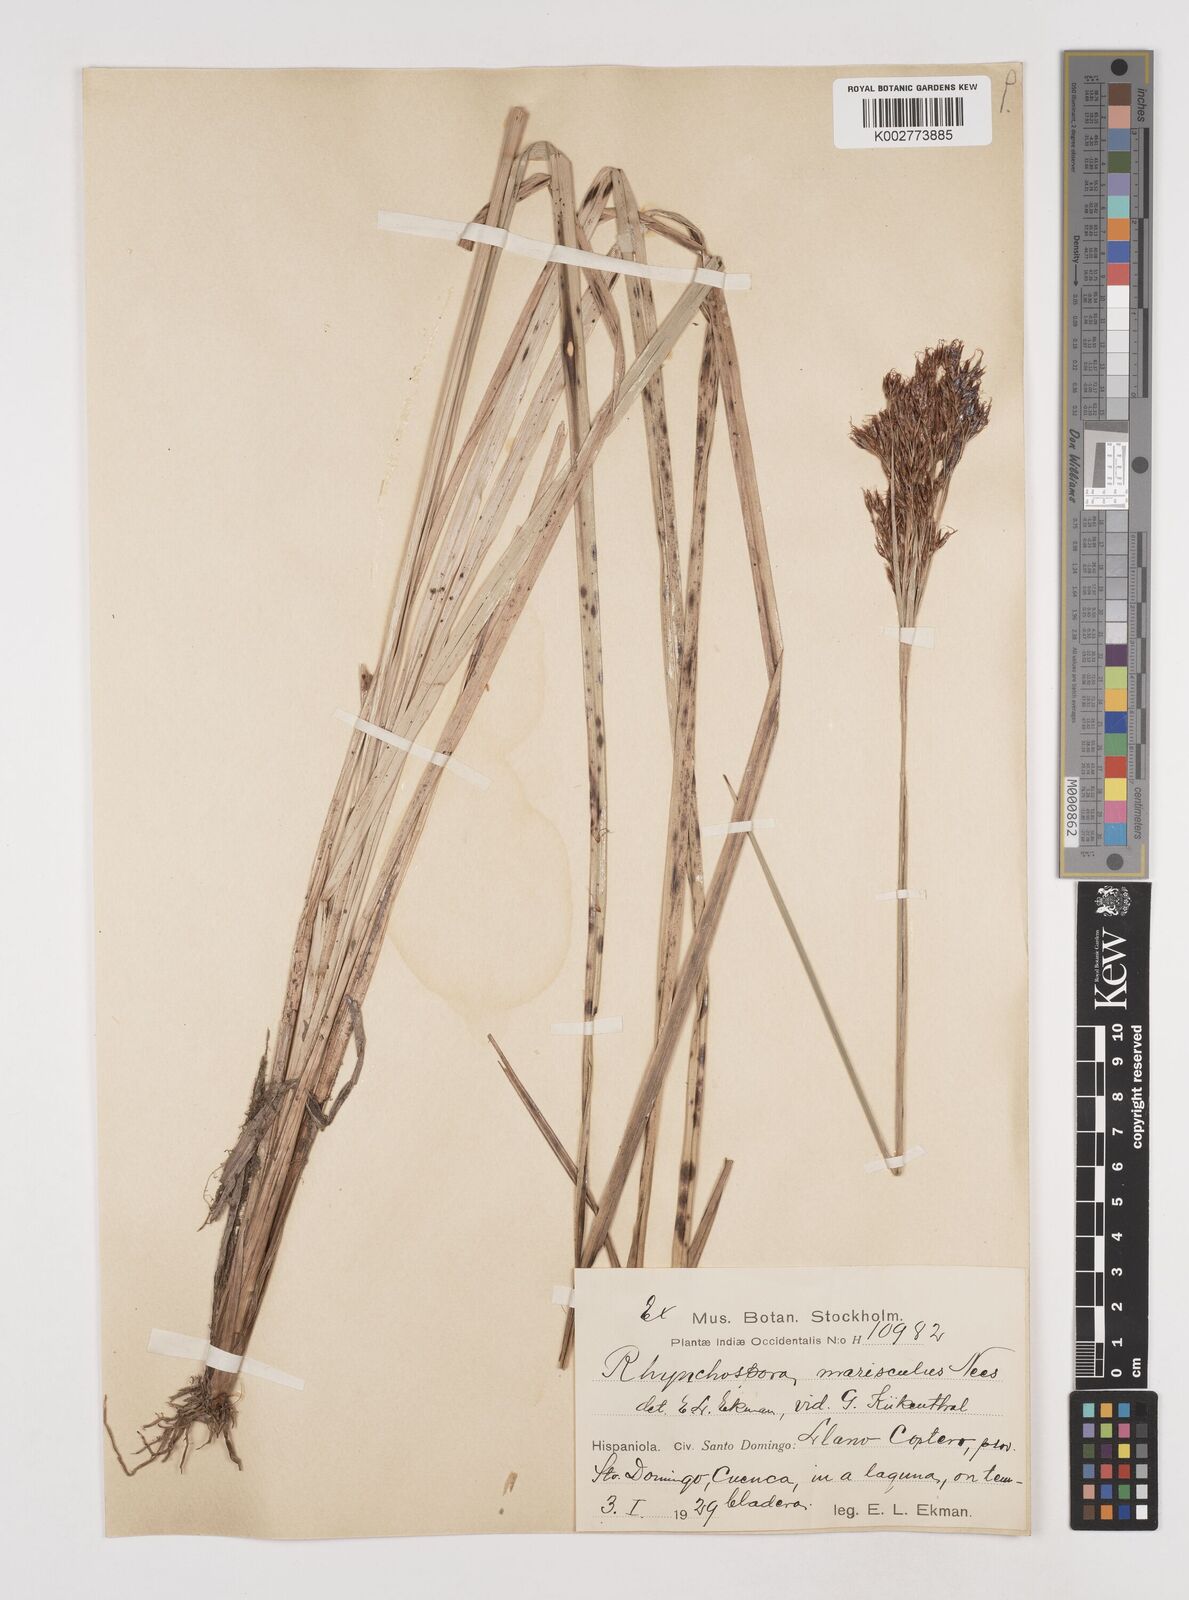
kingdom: Plantae
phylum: Tracheophyta
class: Liliopsida
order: Poales
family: Cyperaceae
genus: Rhynchospora
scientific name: Rhynchospora marisculus
